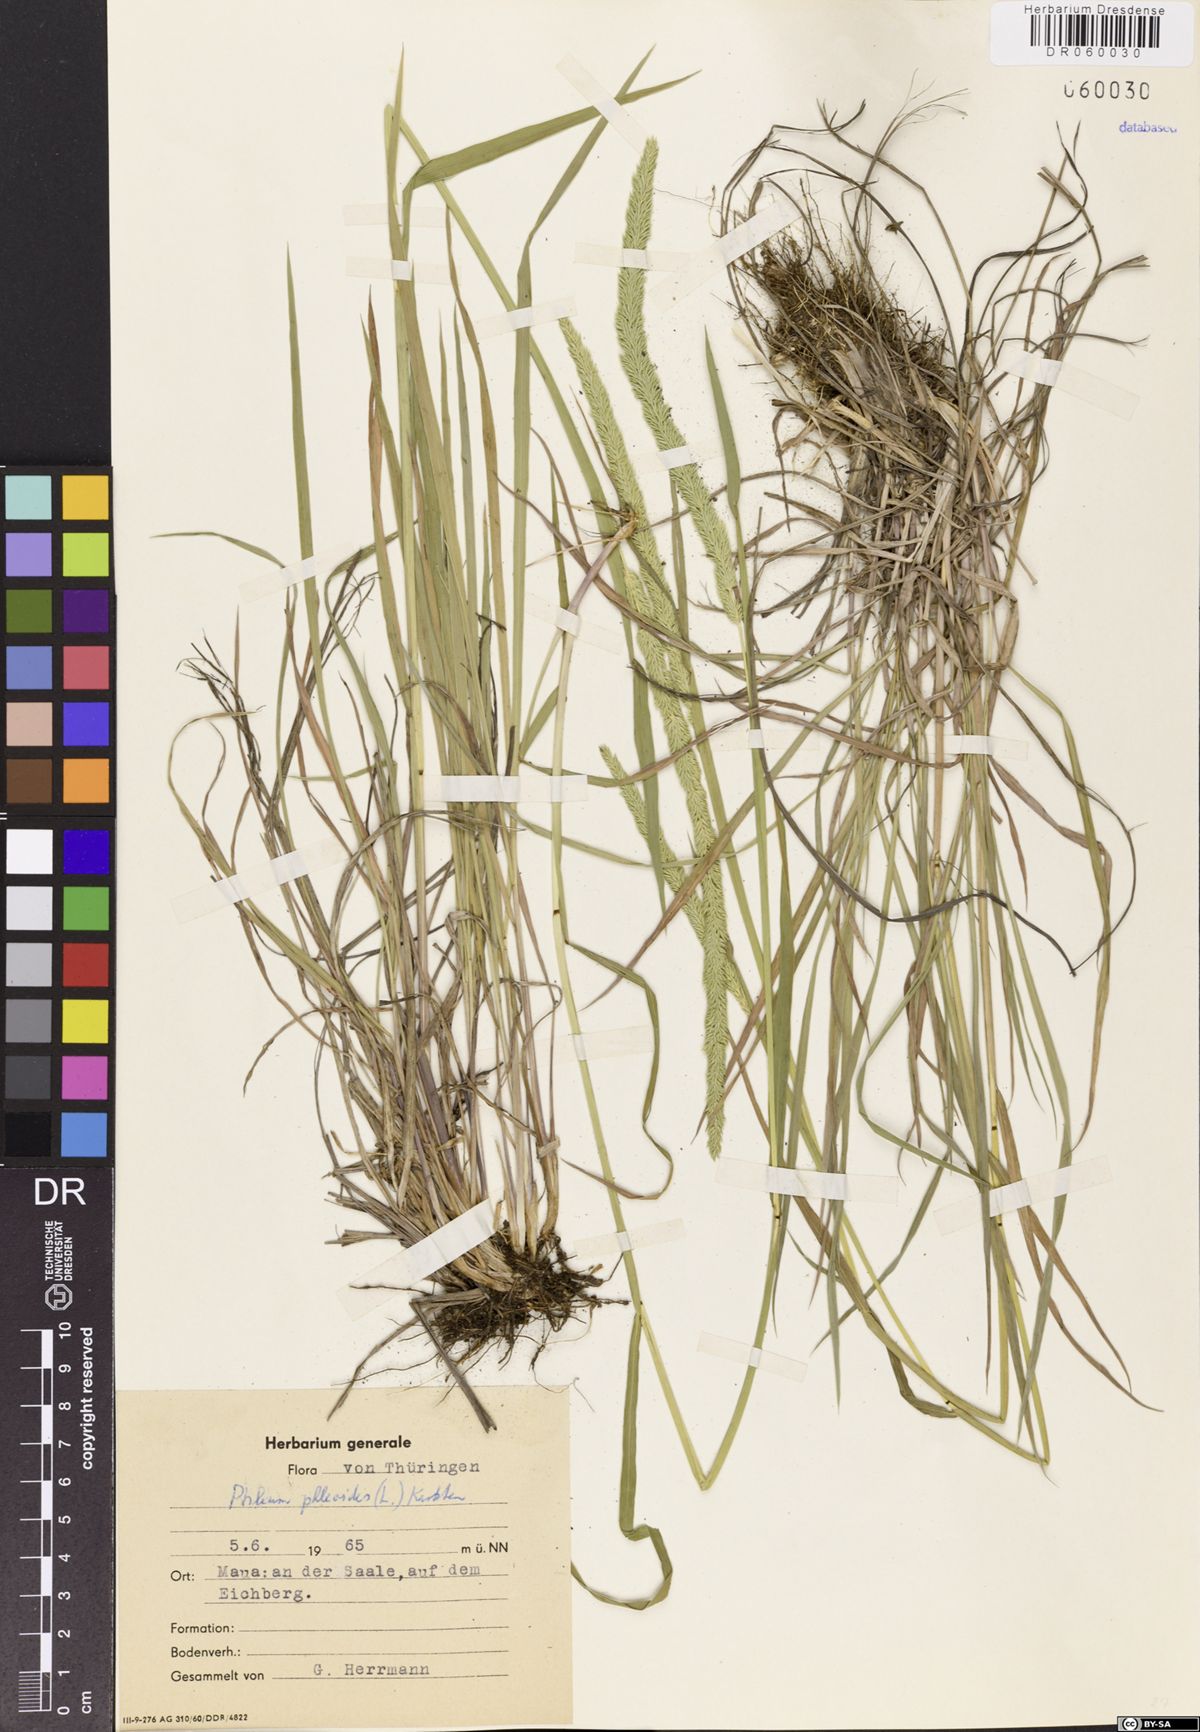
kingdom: Plantae
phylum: Tracheophyta
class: Liliopsida
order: Poales
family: Poaceae
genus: Phleum
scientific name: Phleum phleoides
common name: Purple-stem cat's-tail
